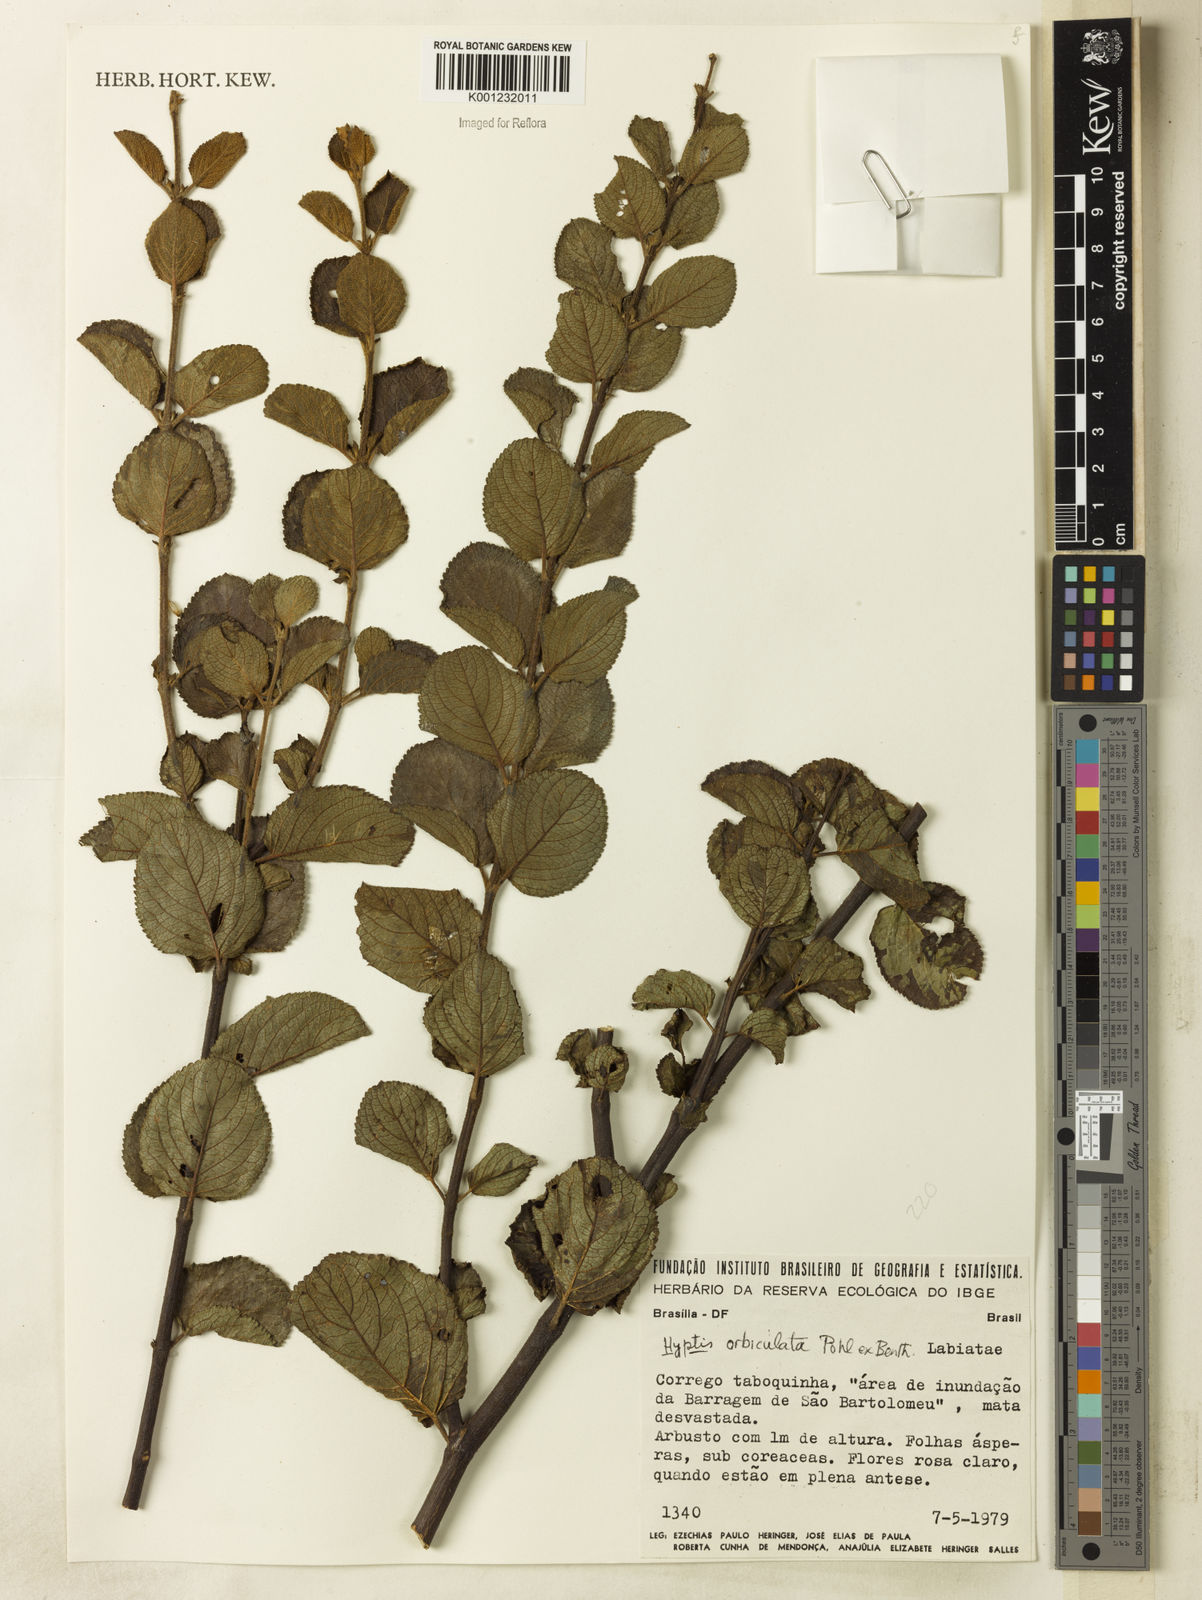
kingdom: Plantae
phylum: Tracheophyta
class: Magnoliopsida
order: Lamiales
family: Lamiaceae
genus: Hyptis
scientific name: Hyptis orbiculata
